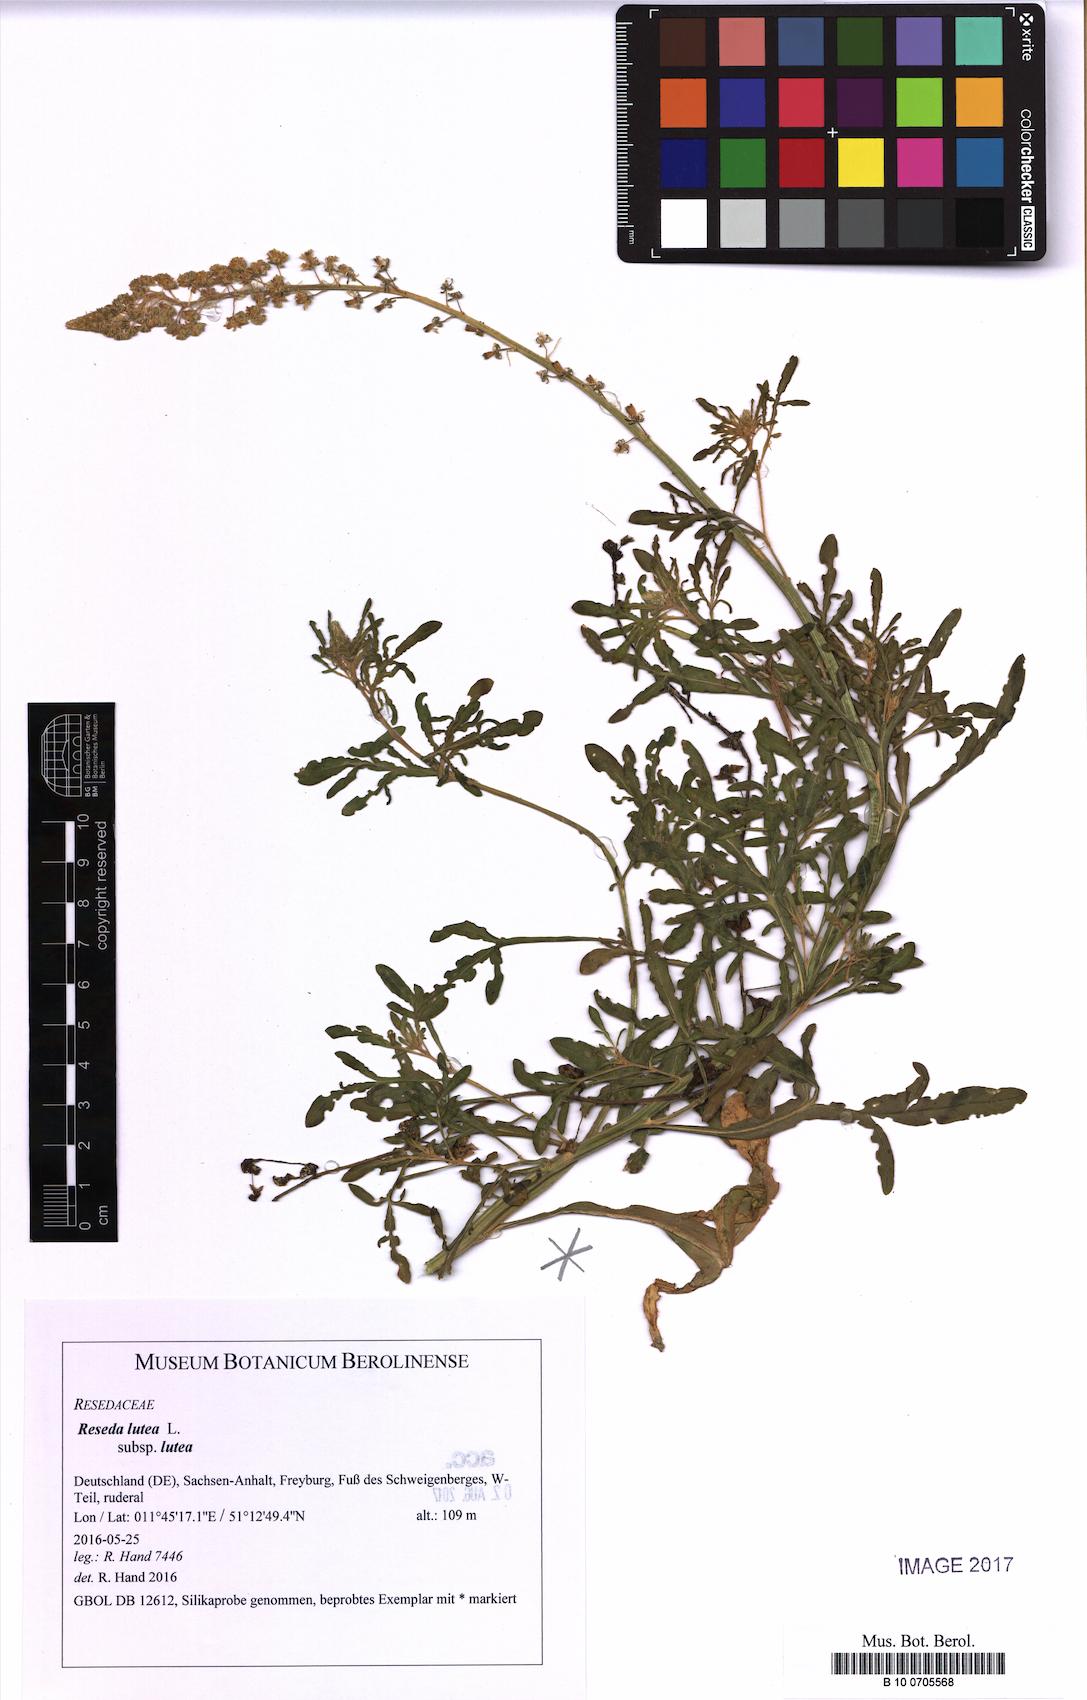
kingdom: Plantae
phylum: Tracheophyta
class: Magnoliopsida
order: Brassicales
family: Resedaceae
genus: Reseda
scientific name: Reseda lutea
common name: Wild mignonette
